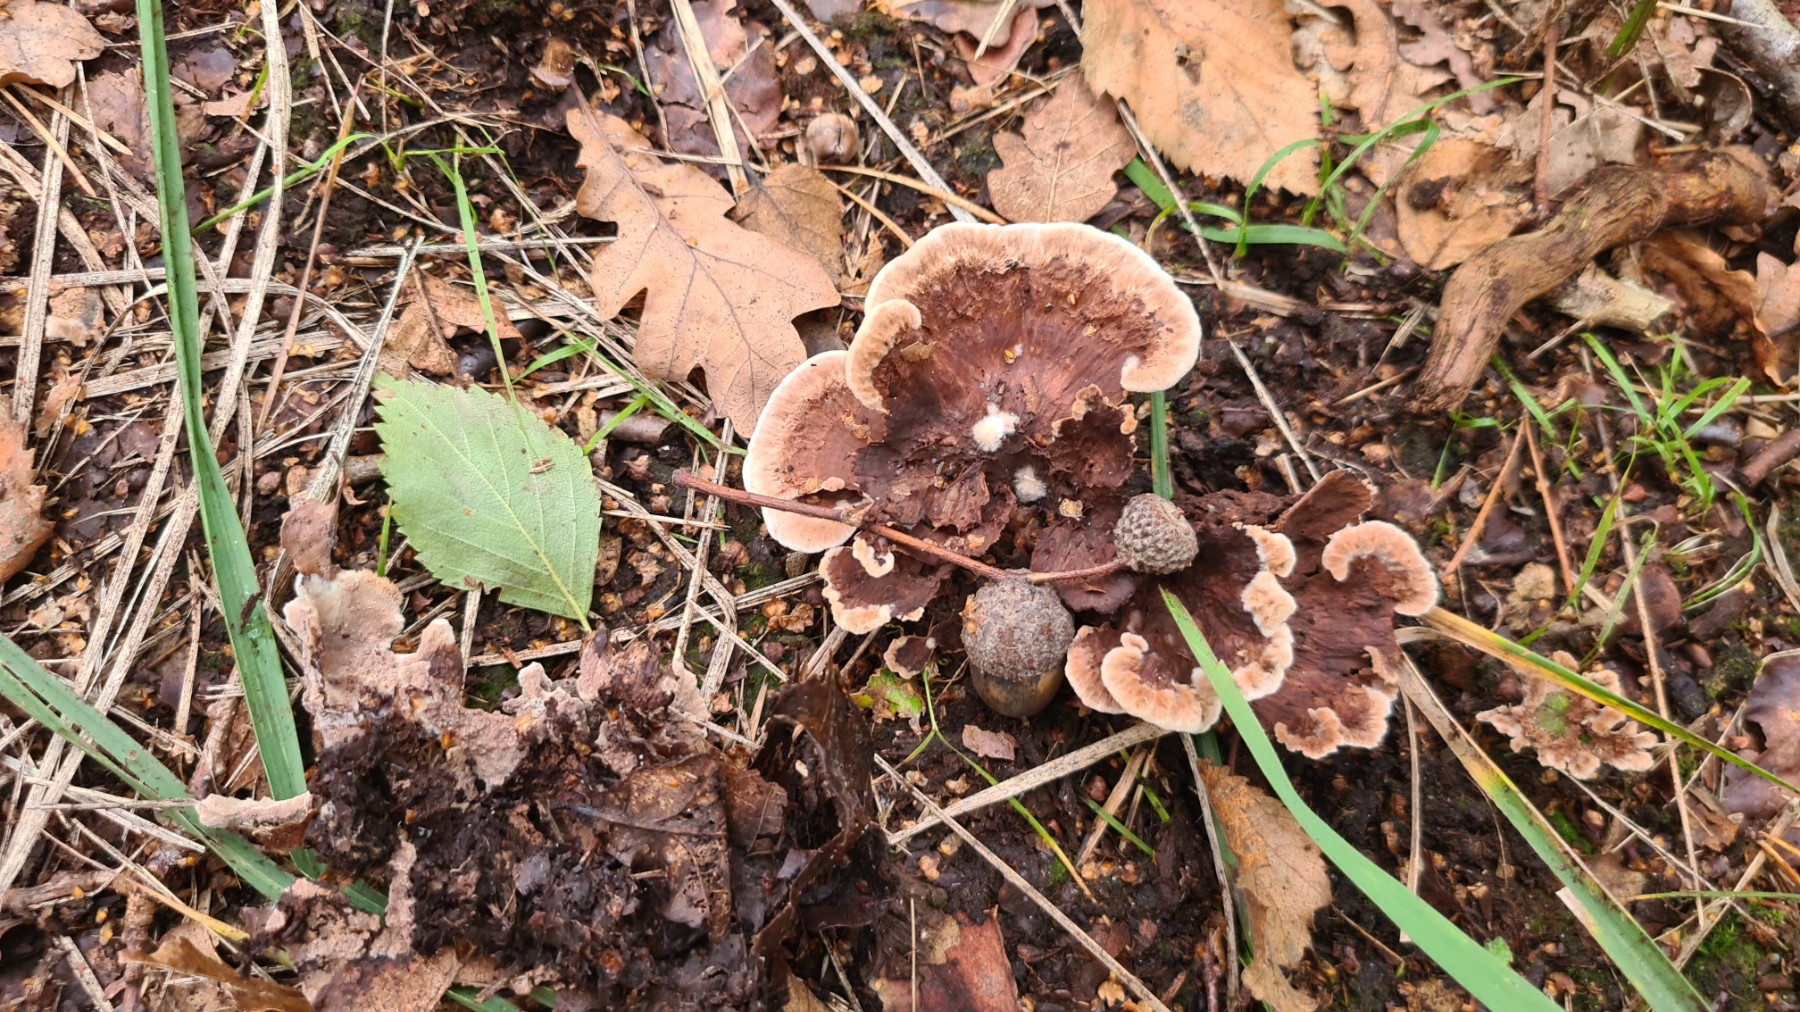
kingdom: Fungi
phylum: Basidiomycota
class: Agaricomycetes
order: Thelephorales
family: Thelephoraceae
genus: Thelephora
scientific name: Thelephora terrestris
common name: fliget frynsesvamp
